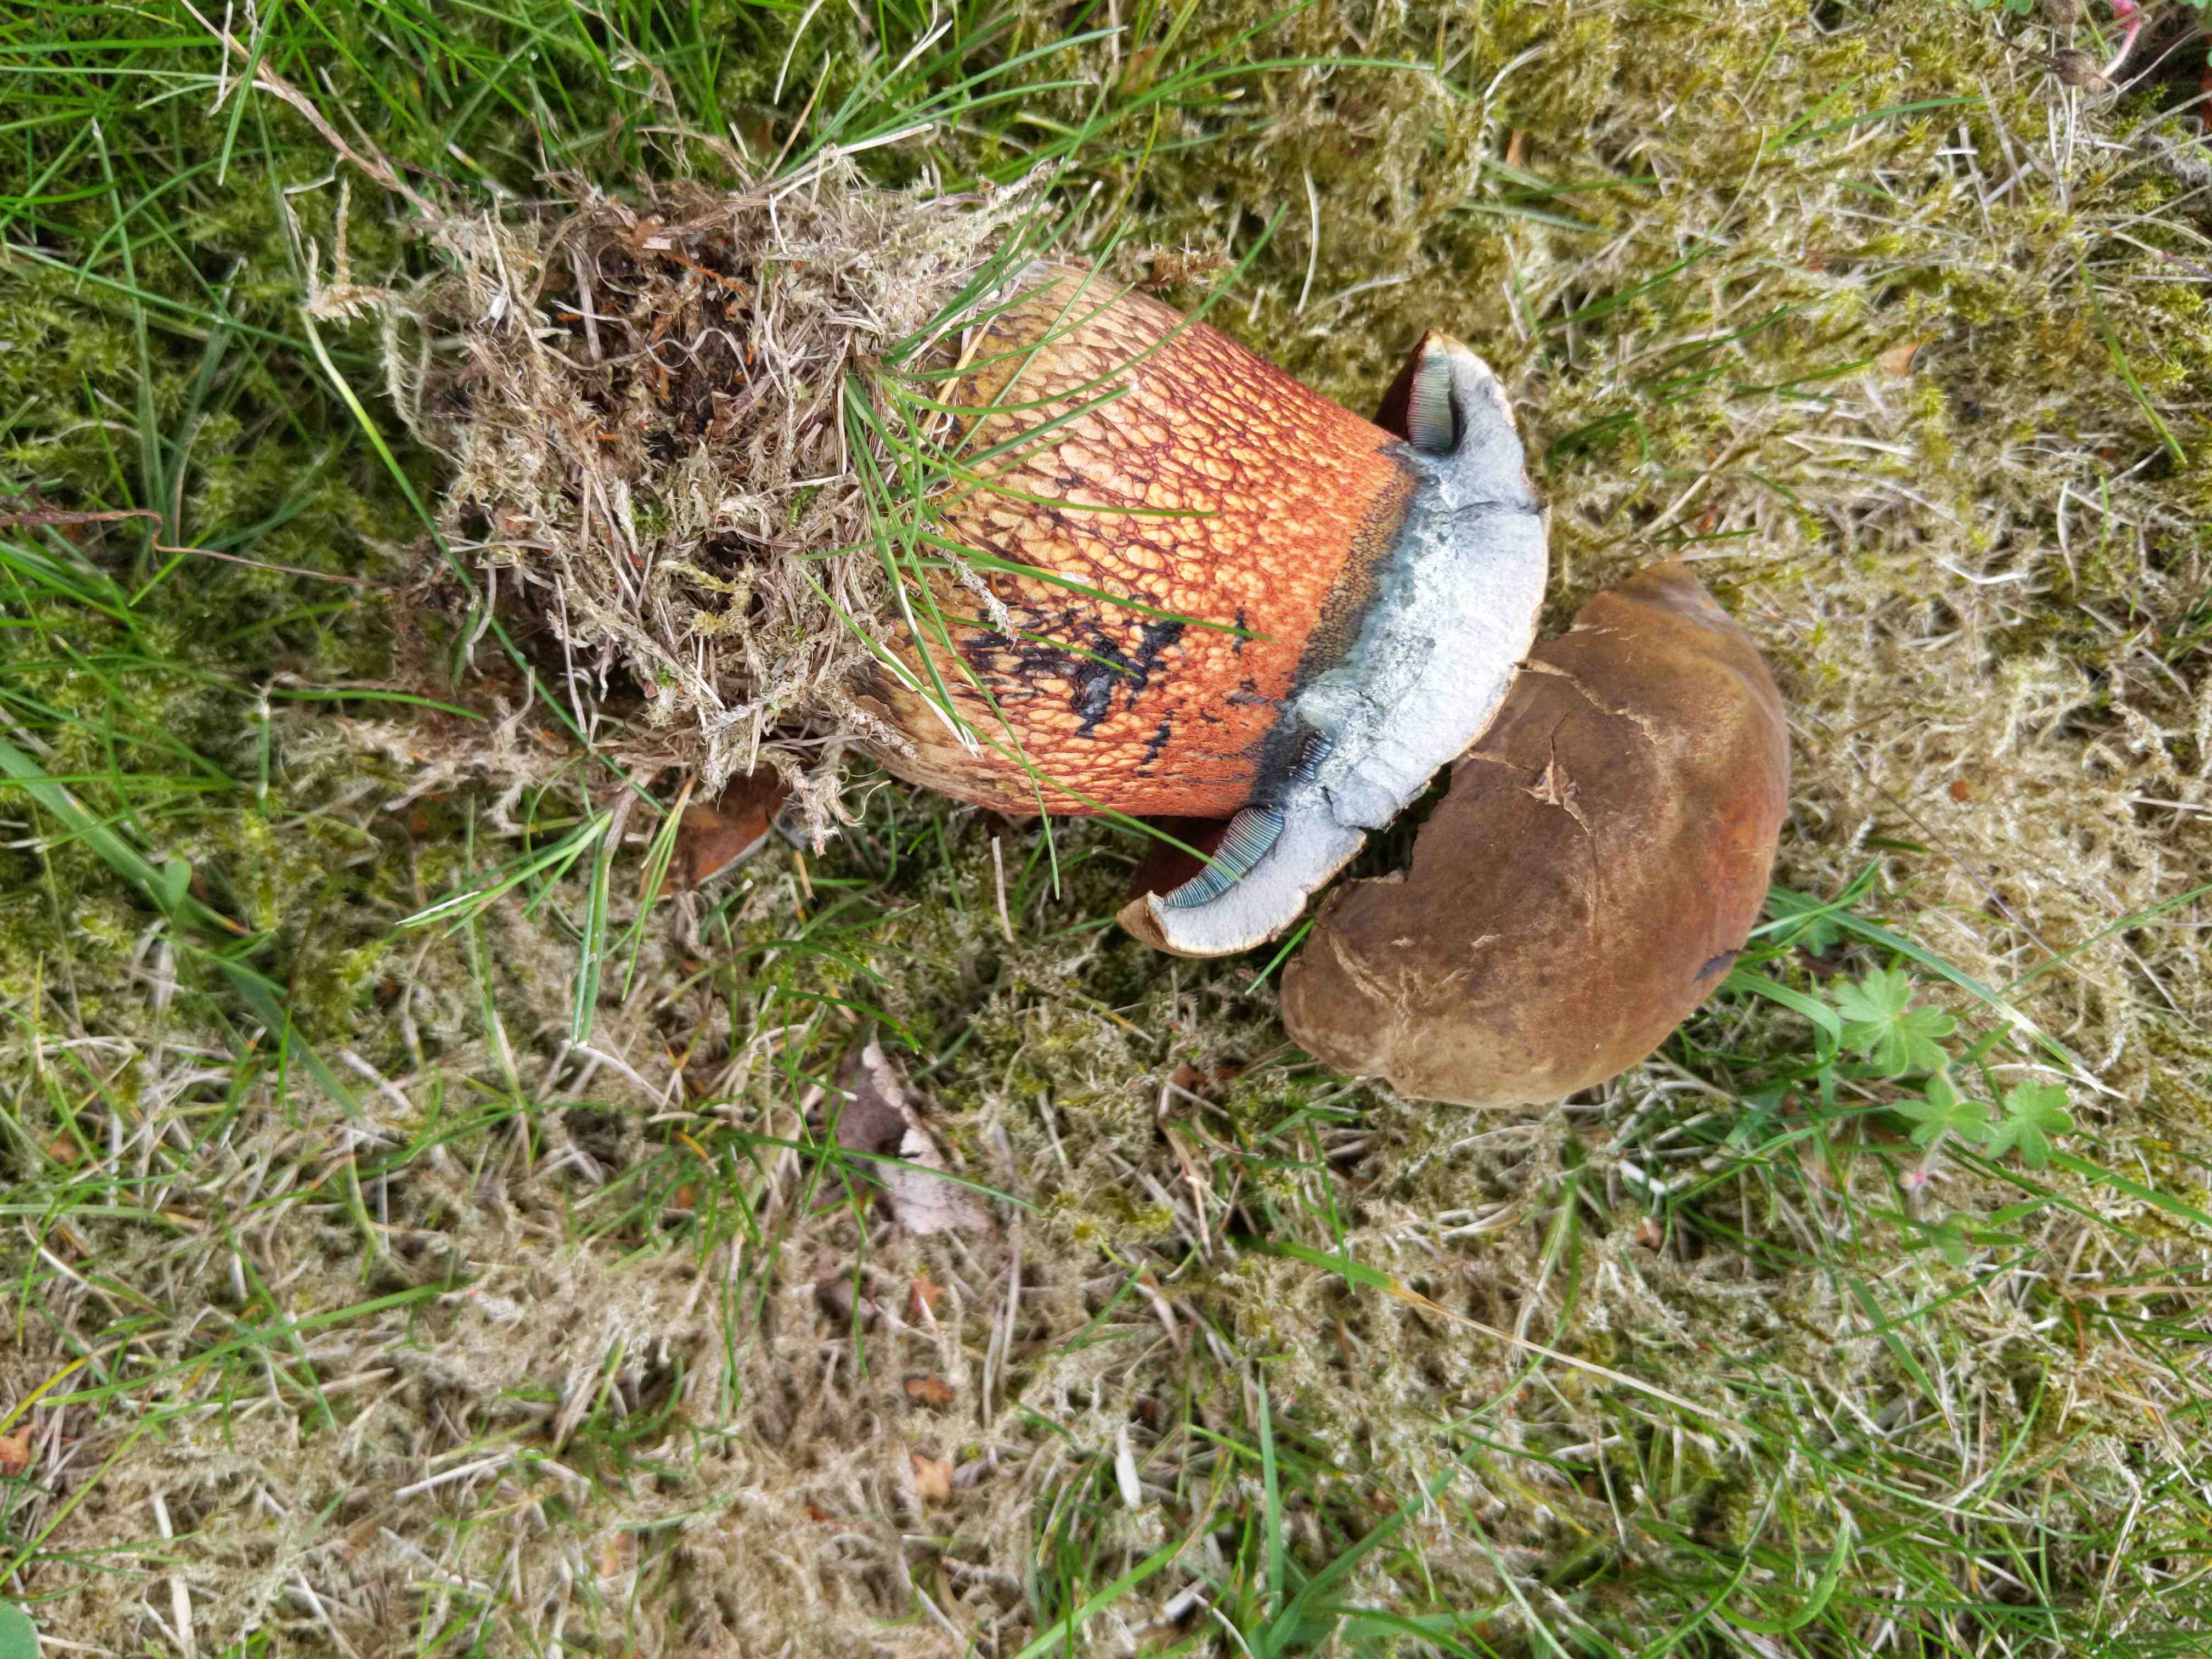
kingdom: Fungi
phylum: Basidiomycota
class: Agaricomycetes
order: Boletales
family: Boletaceae
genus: Suillellus
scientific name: Suillellus luridus
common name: netstokket indigorørhat
